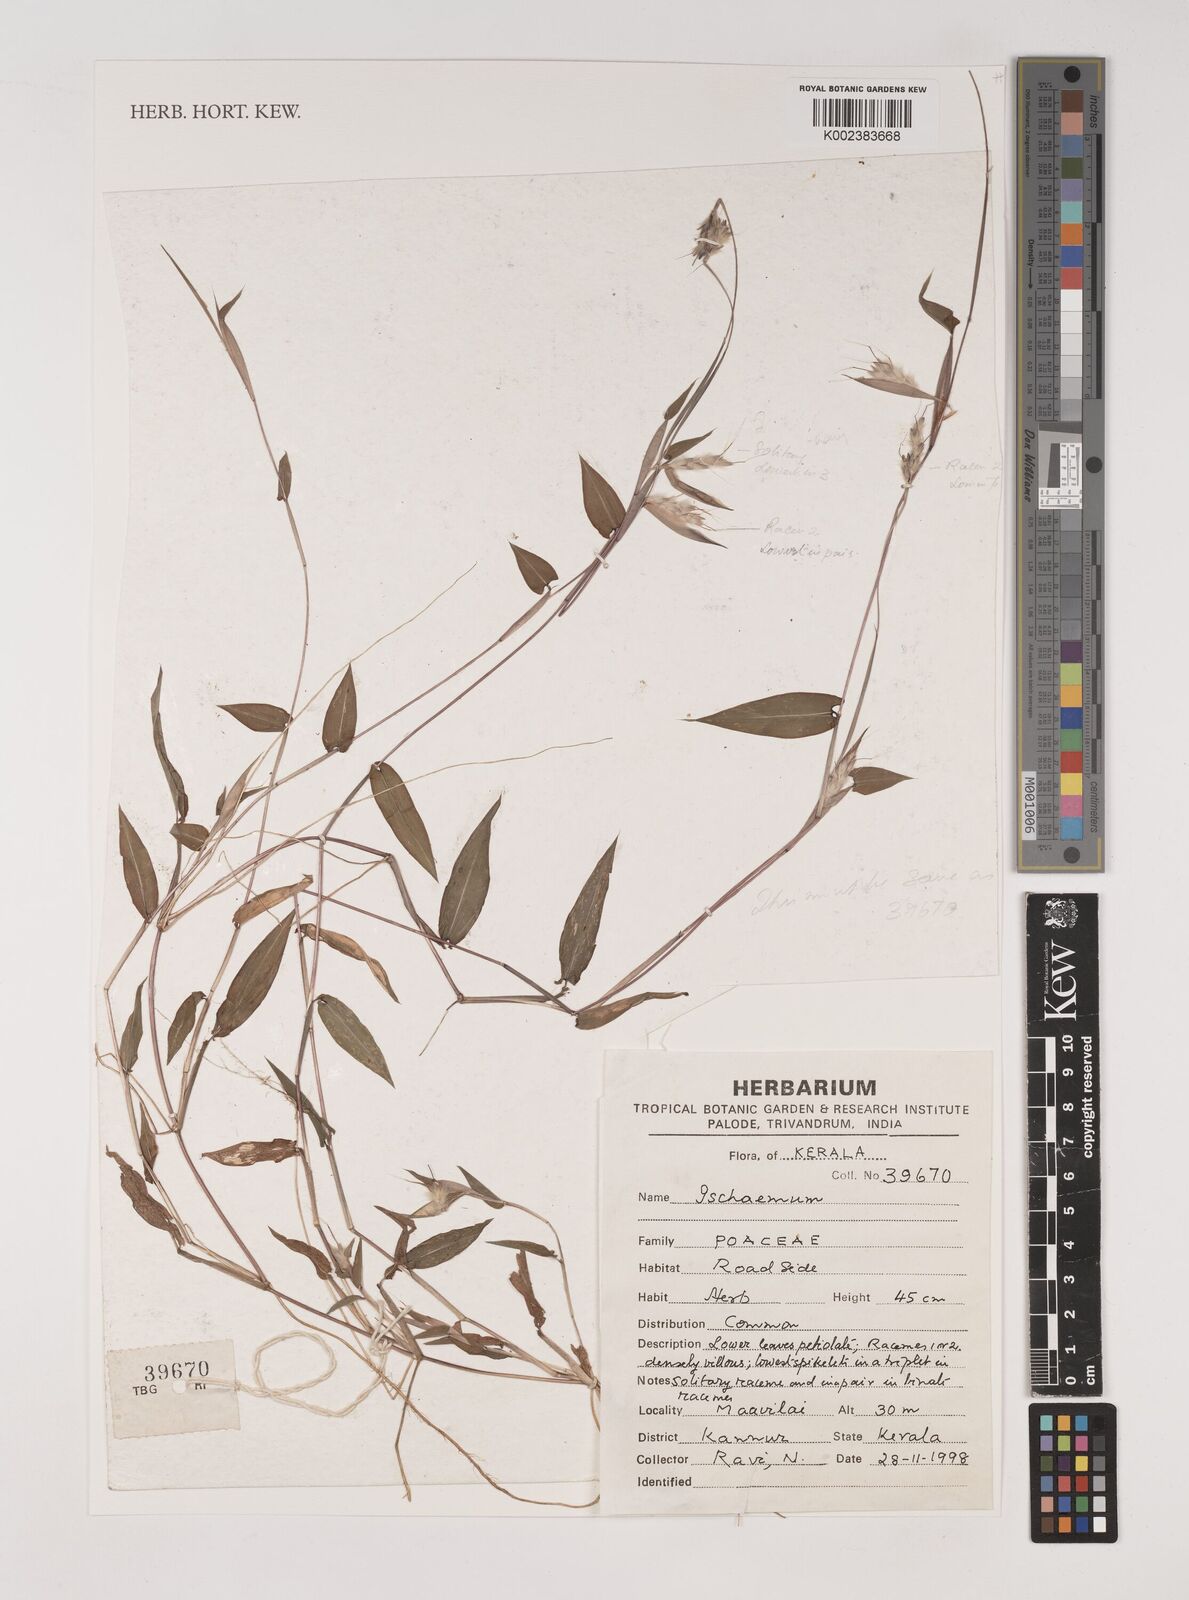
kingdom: Plantae
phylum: Tracheophyta
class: Liliopsida
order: Poales
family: Poaceae
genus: Ischaemum
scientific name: Ischaemum
